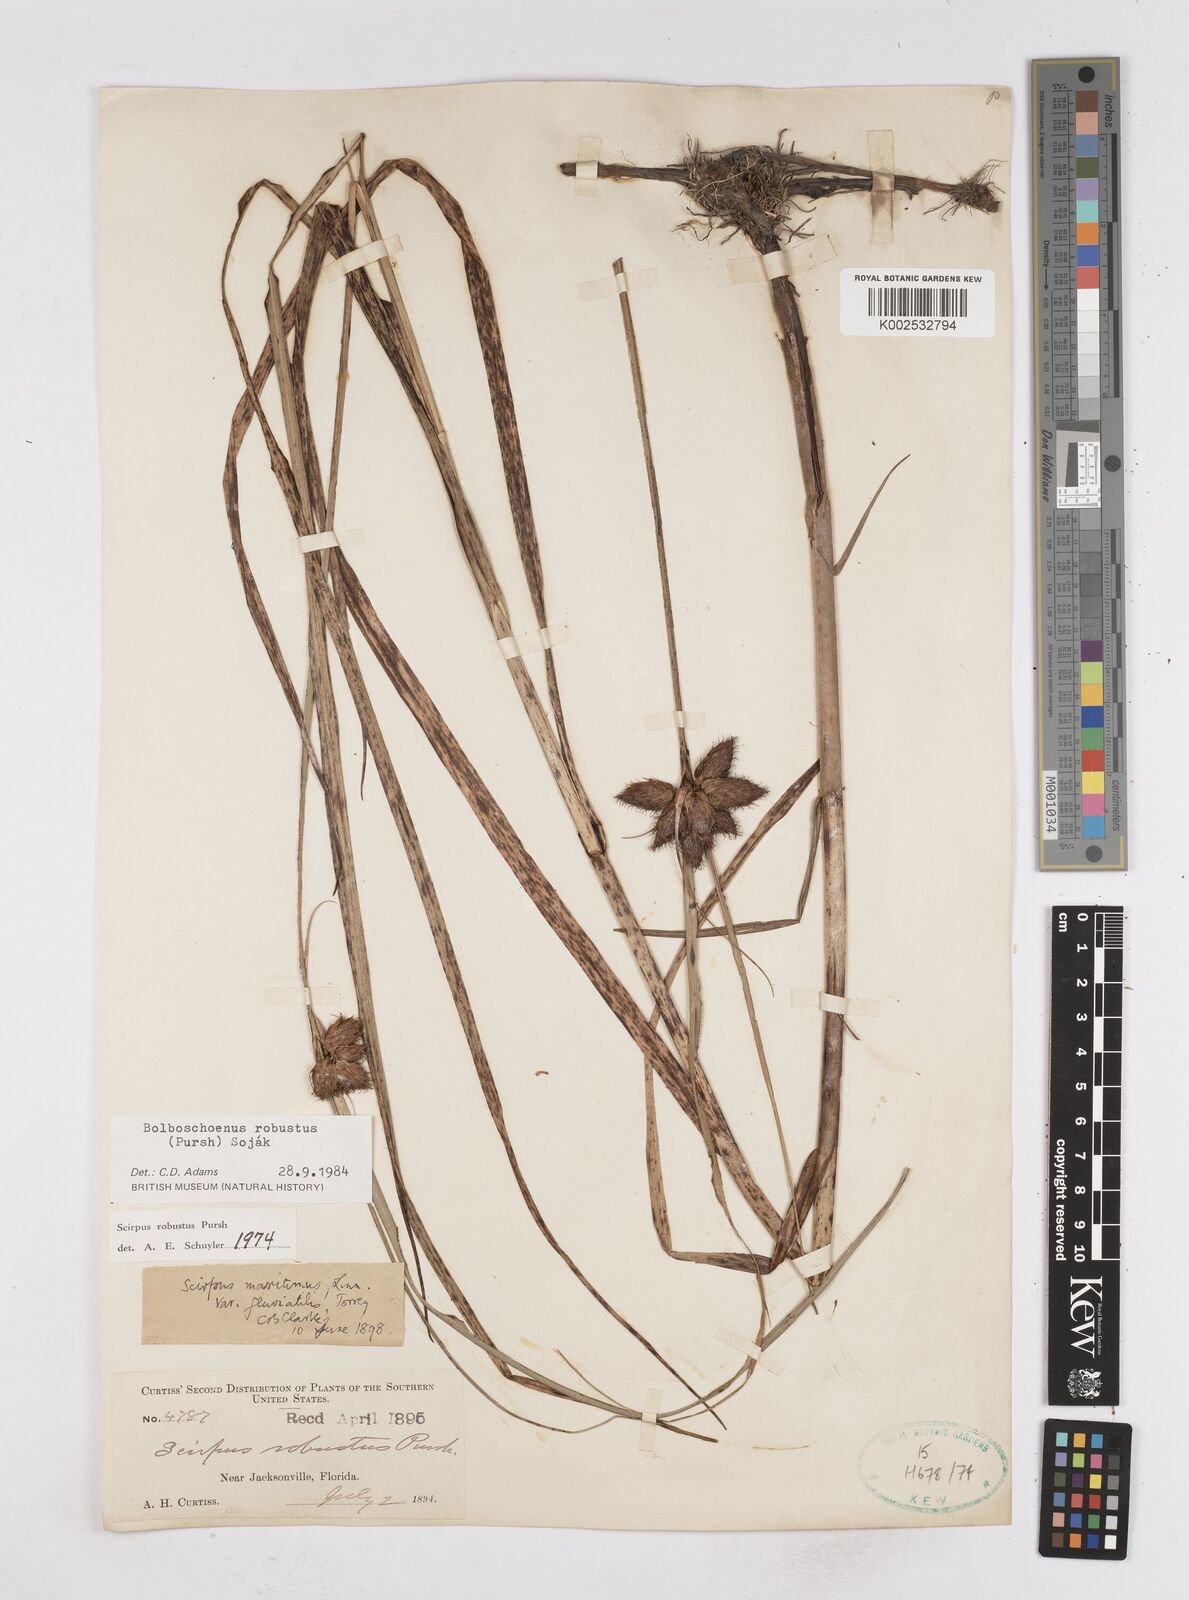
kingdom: Plantae
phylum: Tracheophyta
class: Liliopsida
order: Poales
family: Cyperaceae
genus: Bolboschoenus
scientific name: Bolboschoenus robustus
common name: Seacoast bulrush
